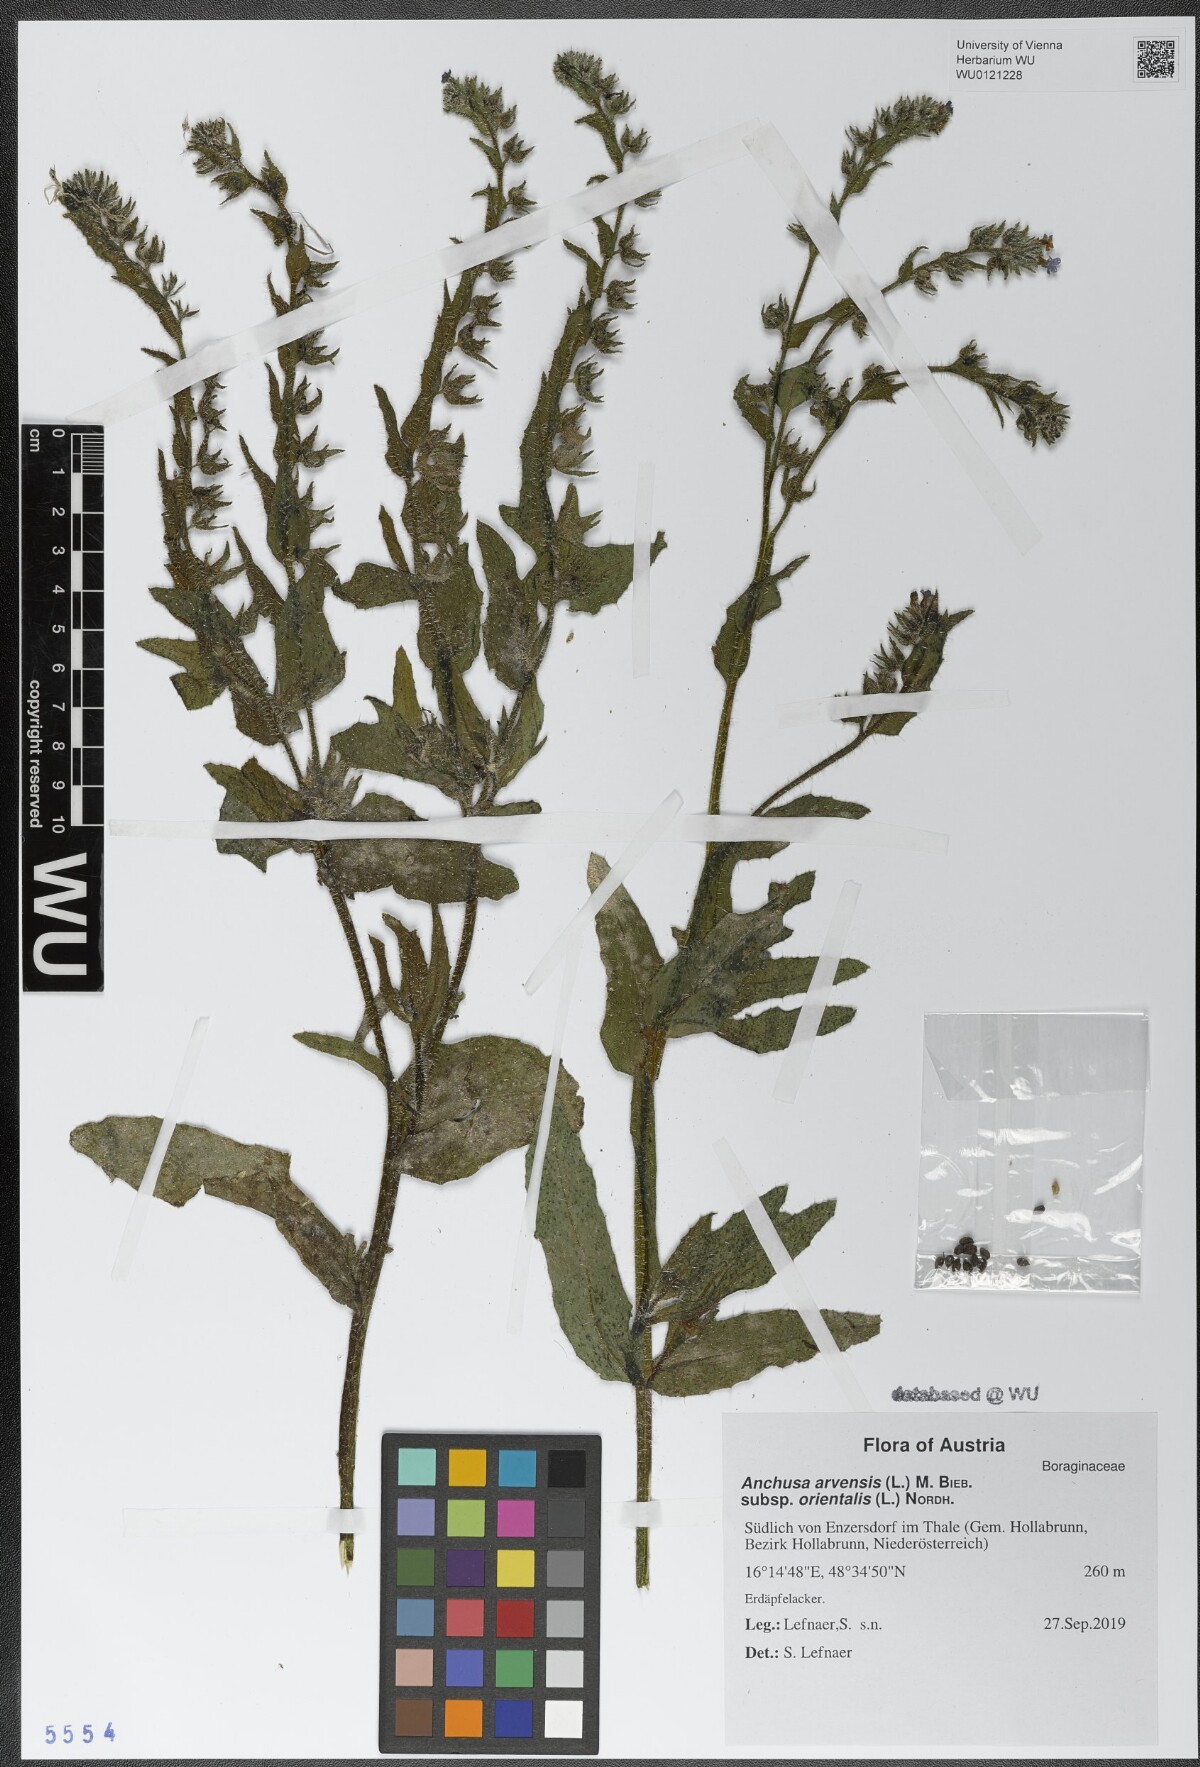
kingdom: Plantae
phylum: Tracheophyta
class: Magnoliopsida
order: Boraginales
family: Boraginaceae
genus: Lycopsis
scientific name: Lycopsis arvensis
